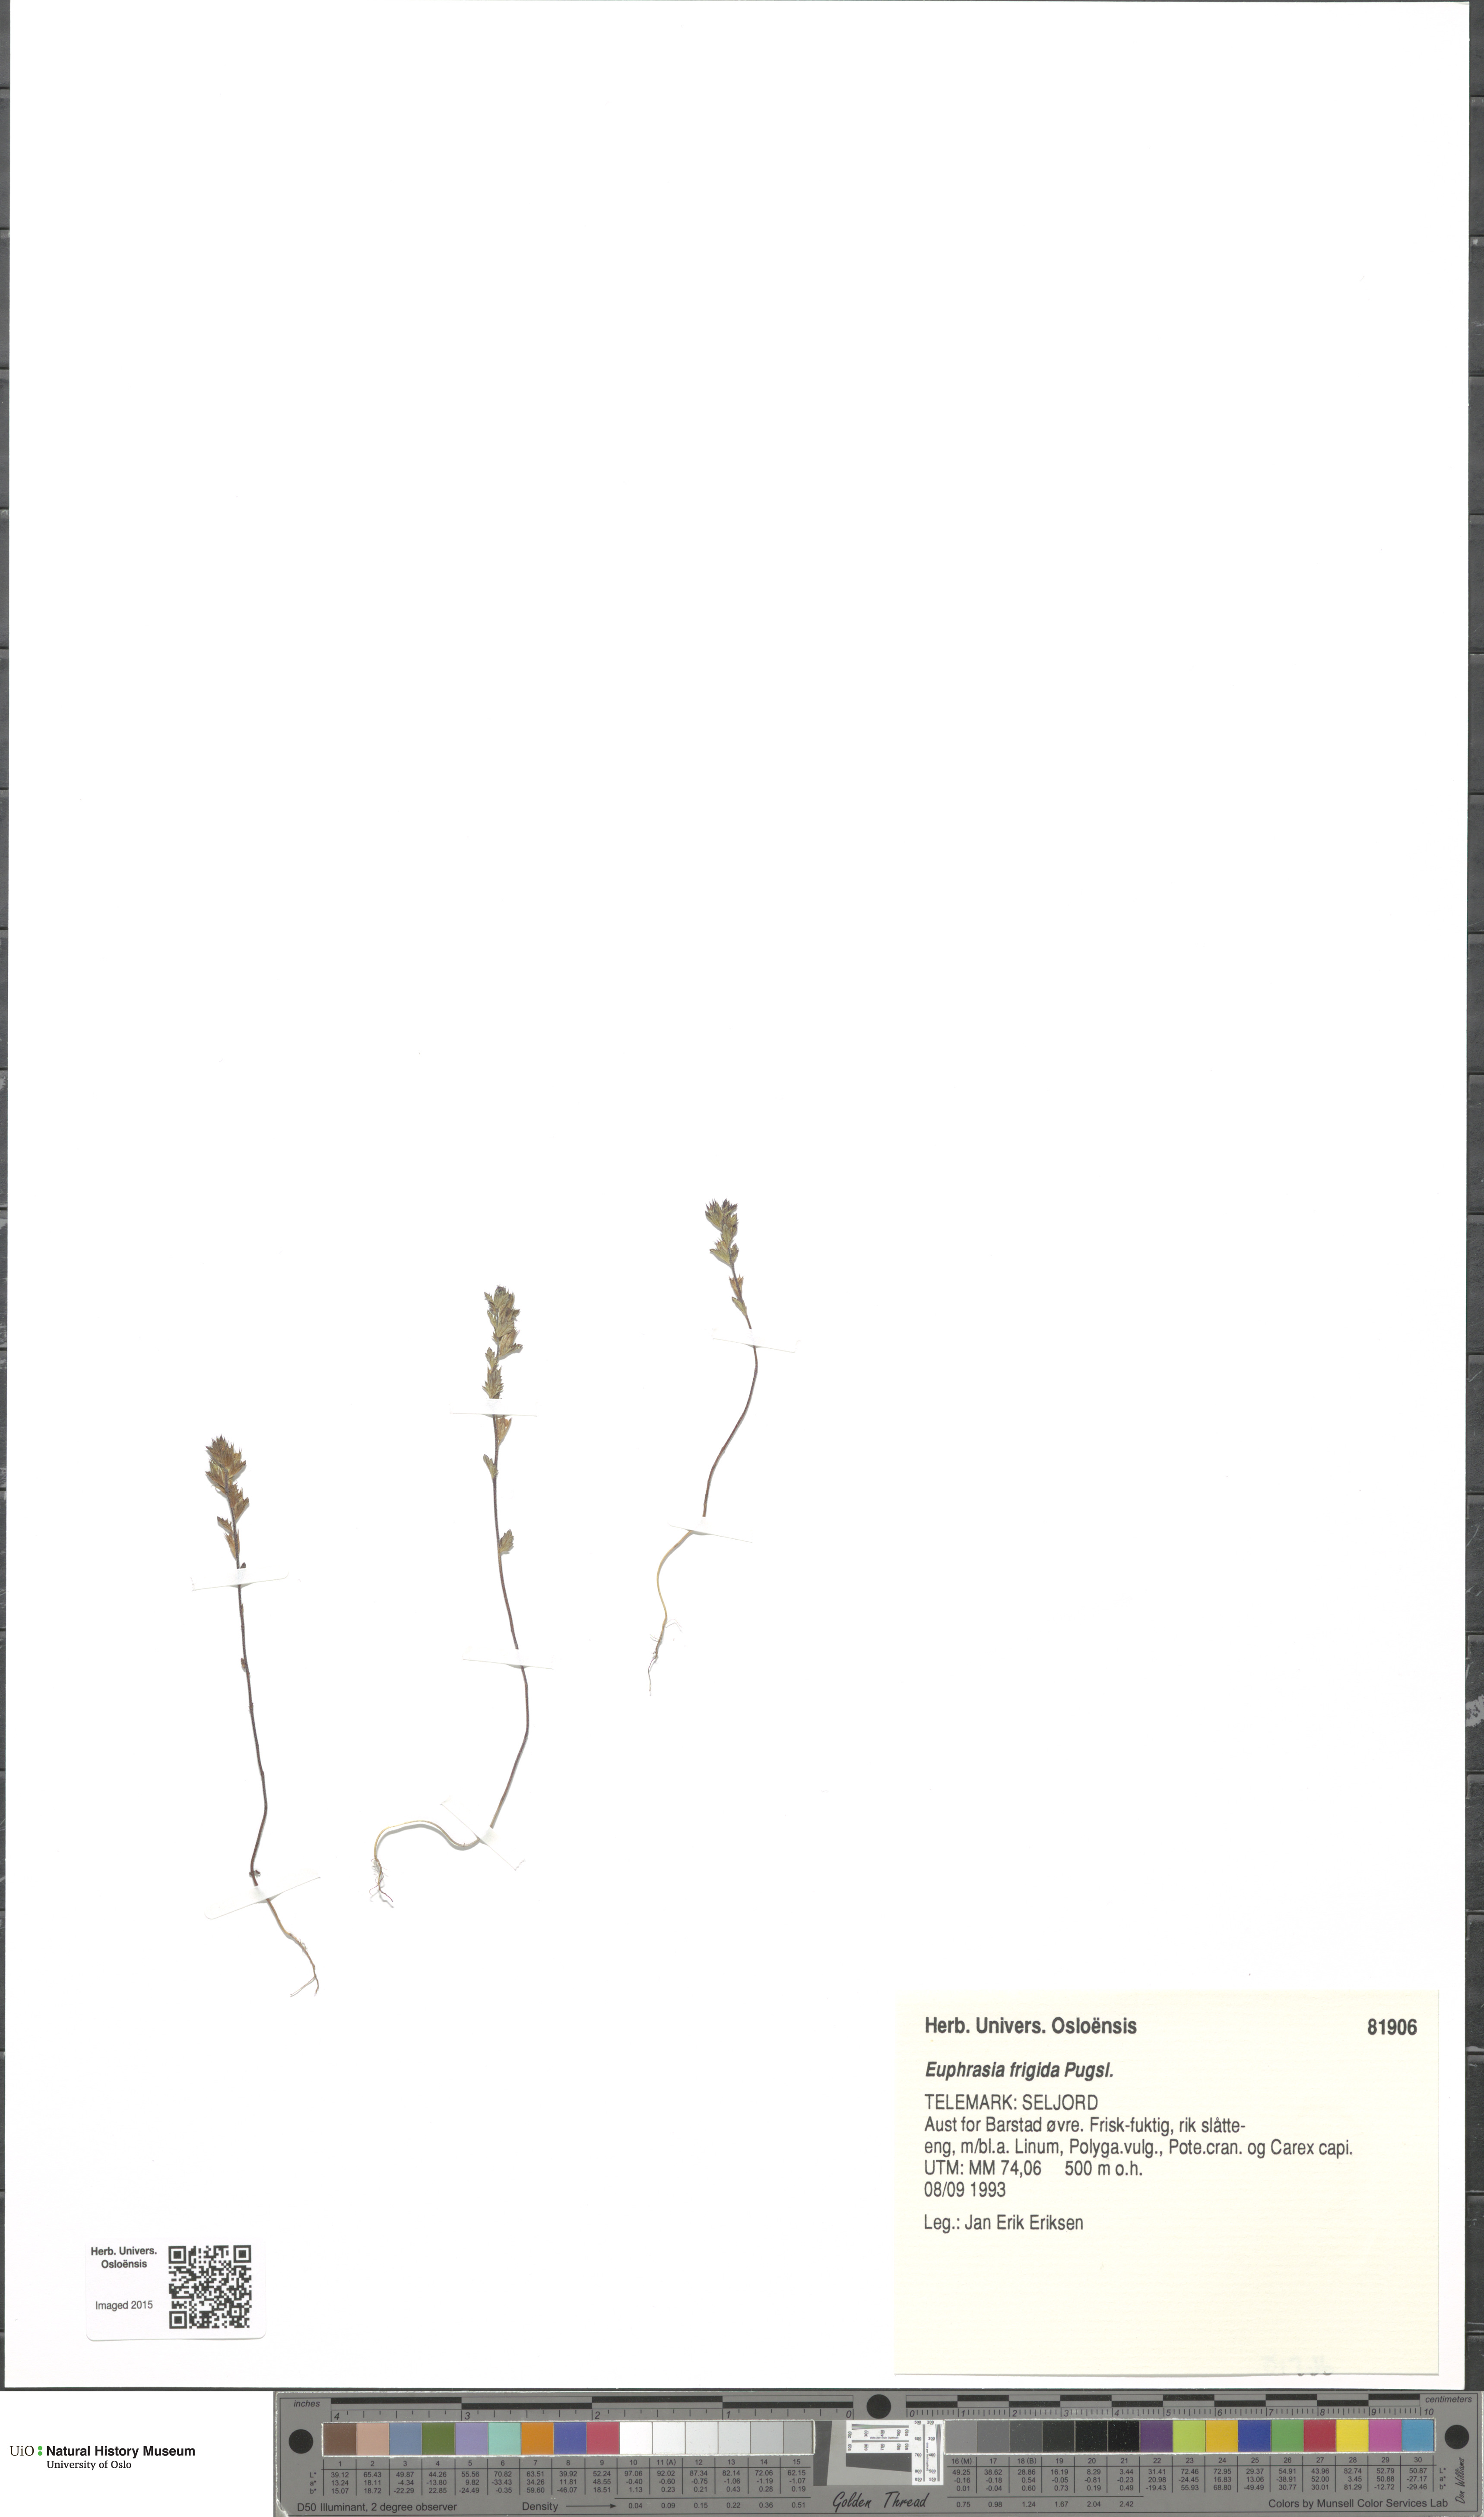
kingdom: Plantae
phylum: Tracheophyta
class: Magnoliopsida
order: Lamiales
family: Orobanchaceae
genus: Euphrasia
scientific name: Euphrasia frigida
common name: An eyebright
